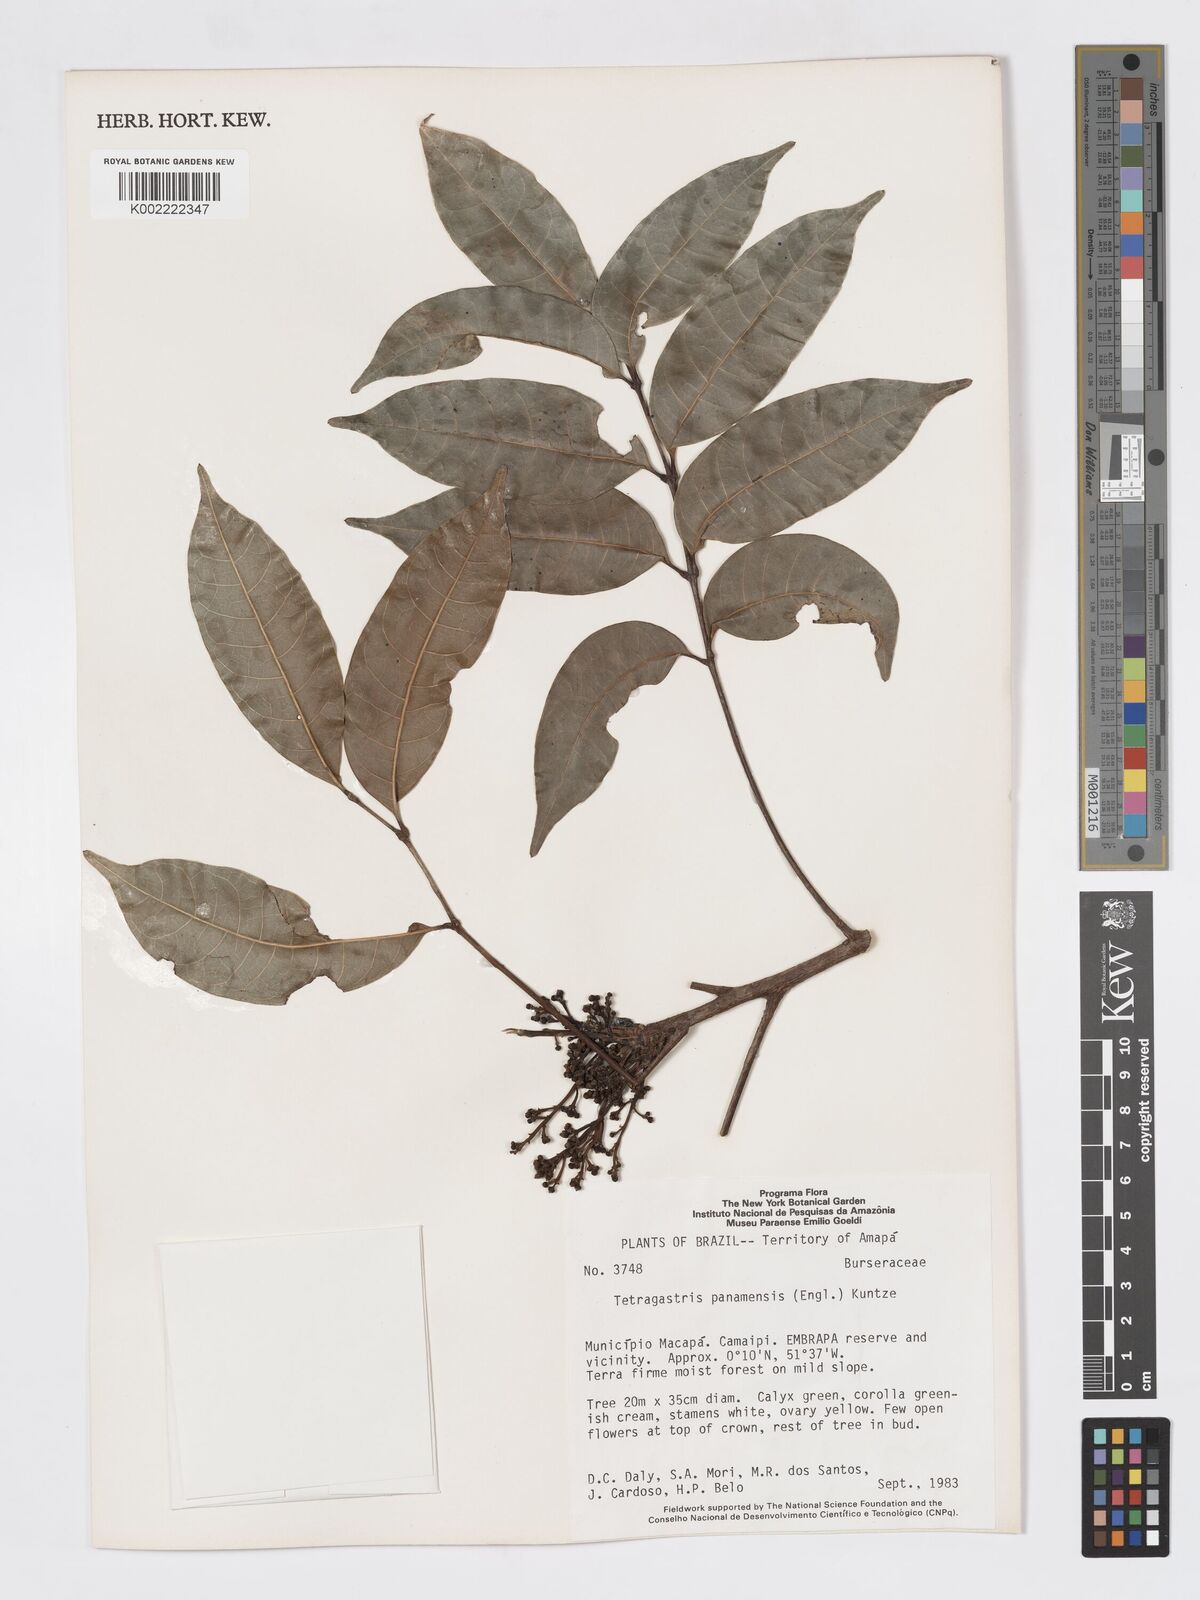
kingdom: Plantae
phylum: Tracheophyta
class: Magnoliopsida
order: Sapindales
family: Burseraceae
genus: Tetragastris
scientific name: Tetragastris panamensis
